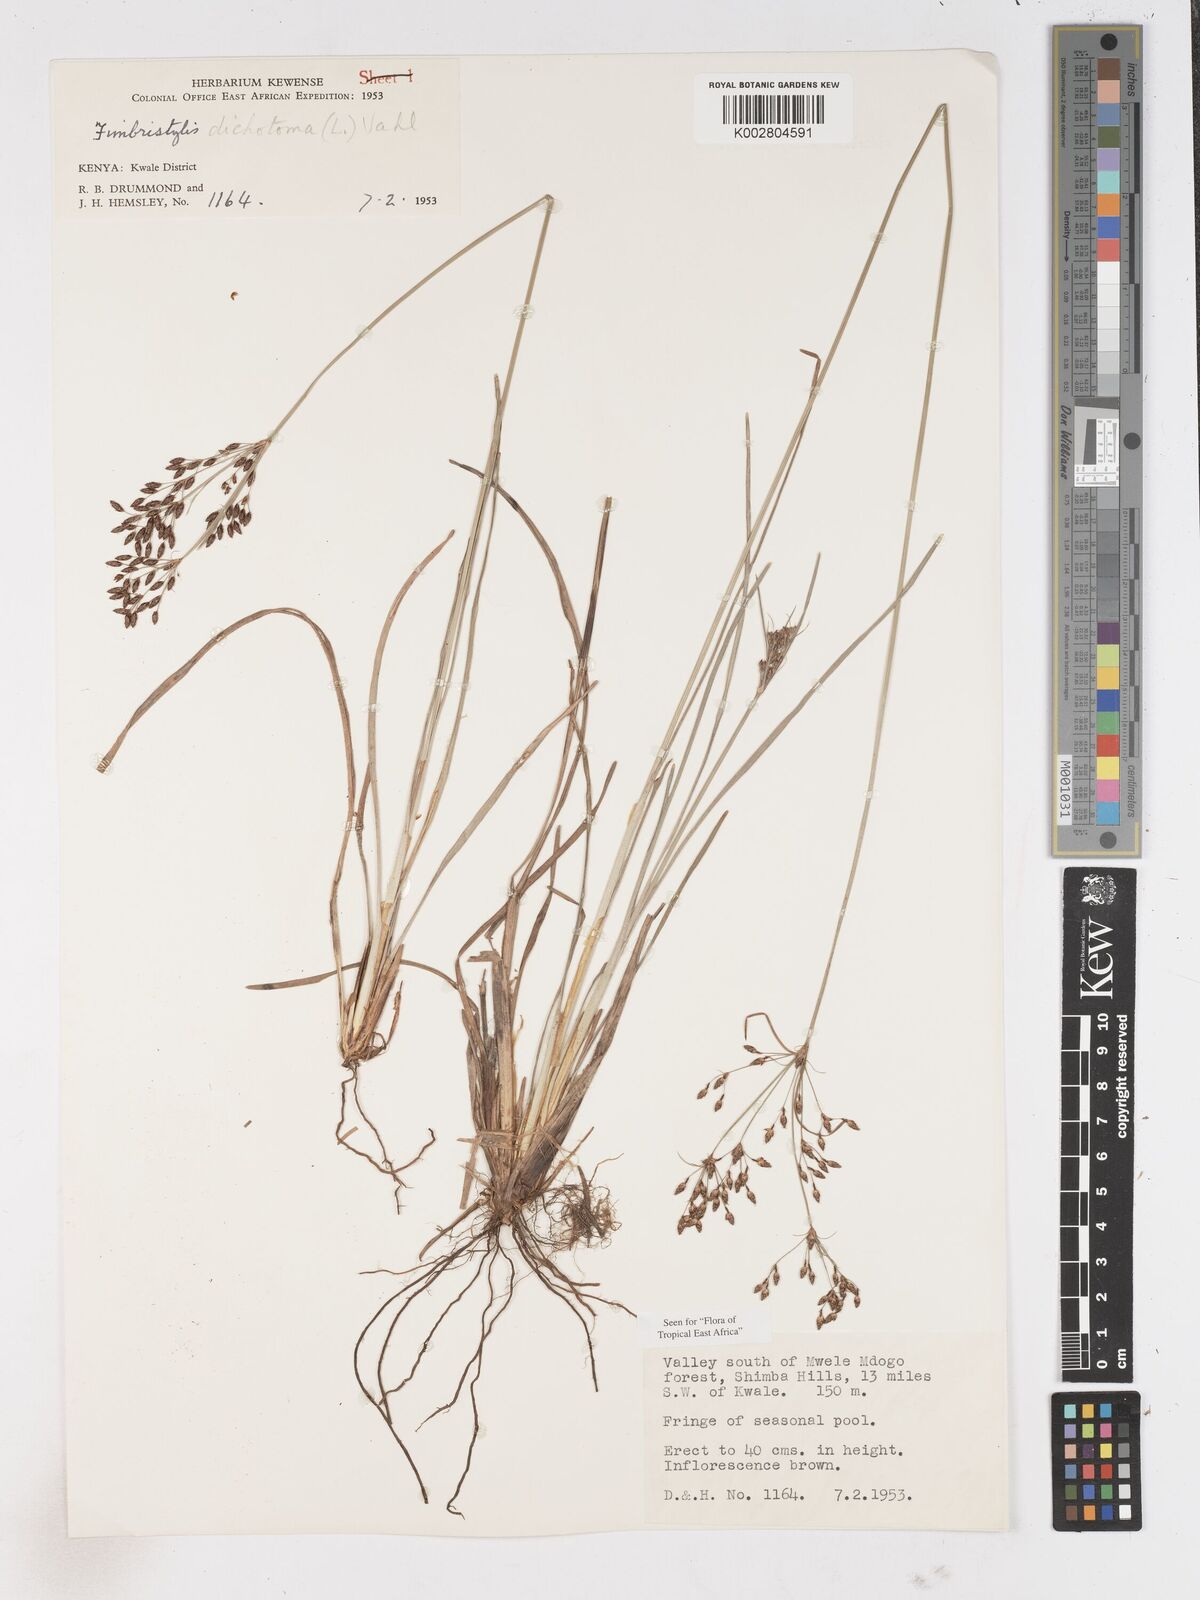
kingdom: Plantae
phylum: Tracheophyta
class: Liliopsida
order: Poales
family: Cyperaceae
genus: Fimbristylis
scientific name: Fimbristylis dichotoma
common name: Forked fimbry
